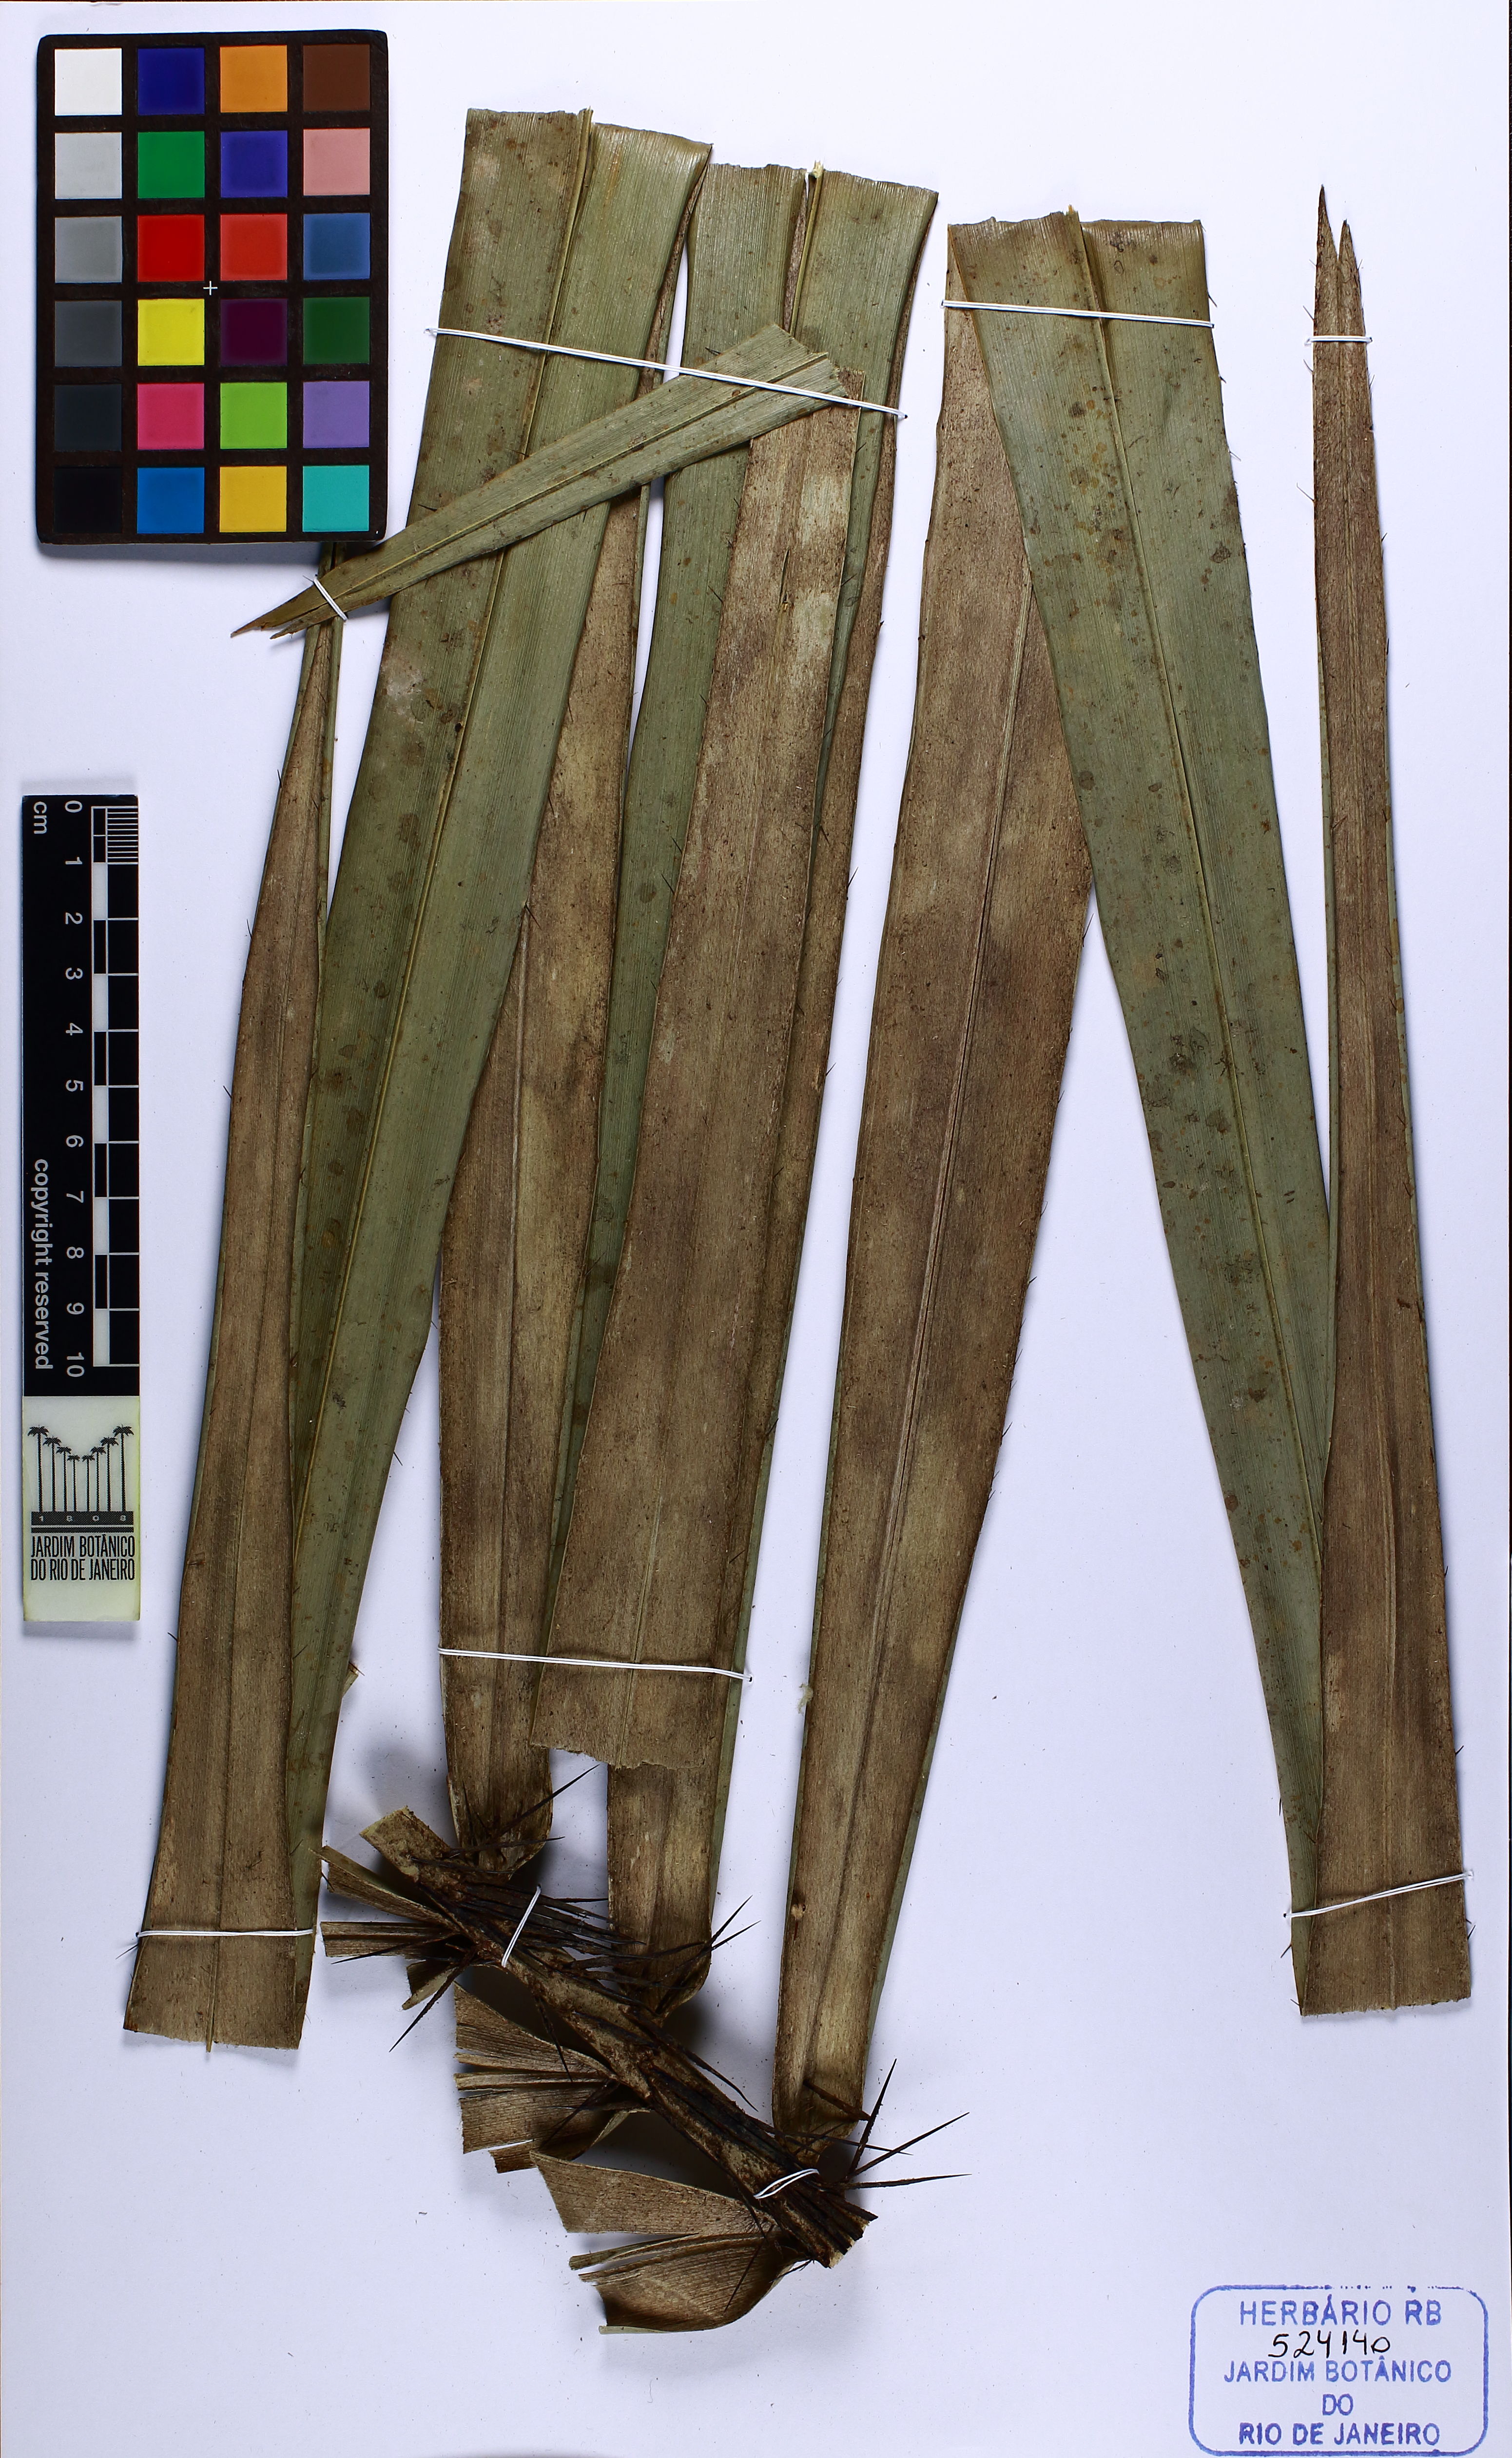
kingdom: Plantae
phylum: Tracheophyta
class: Liliopsida
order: Arecales
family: Arecaceae
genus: Astrocaryum
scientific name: Astrocaryum murumuru
